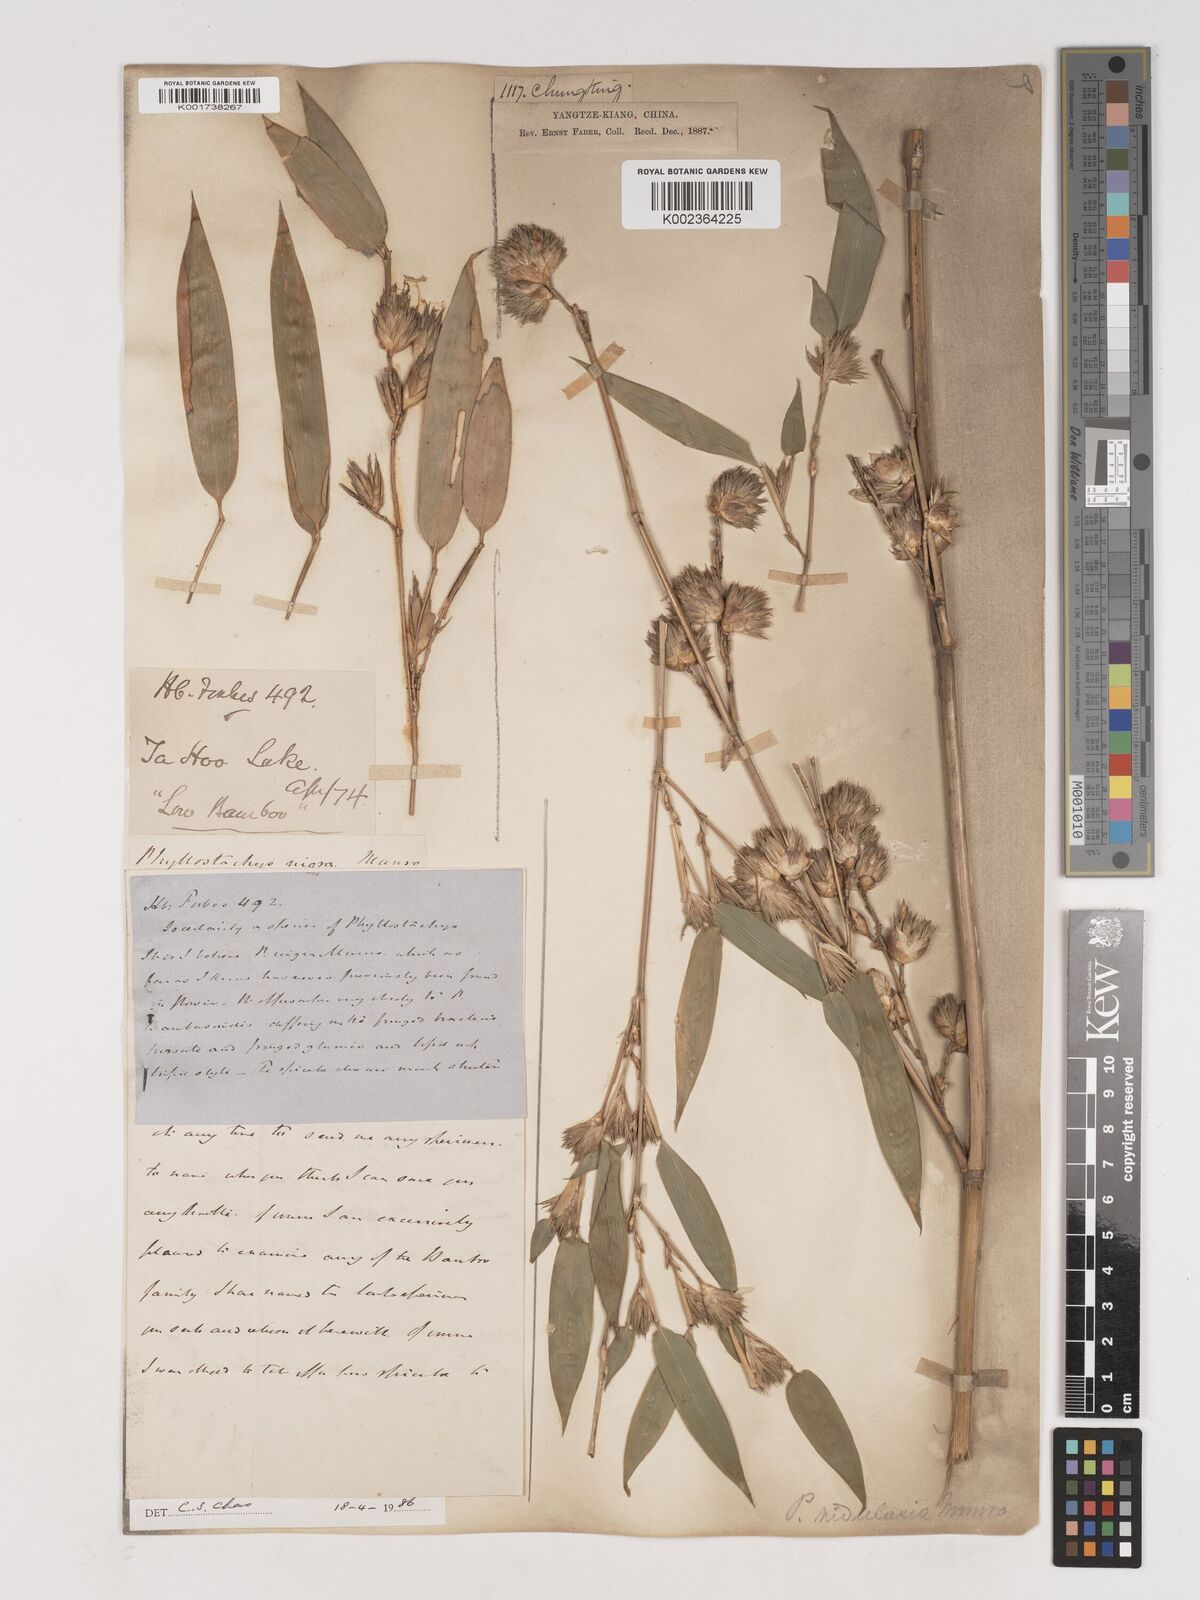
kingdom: Plantae
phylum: Tracheophyta
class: Liliopsida
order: Poales
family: Poaceae
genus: Phyllostachys
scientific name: Phyllostachys nidularia
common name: Broom bamboo
